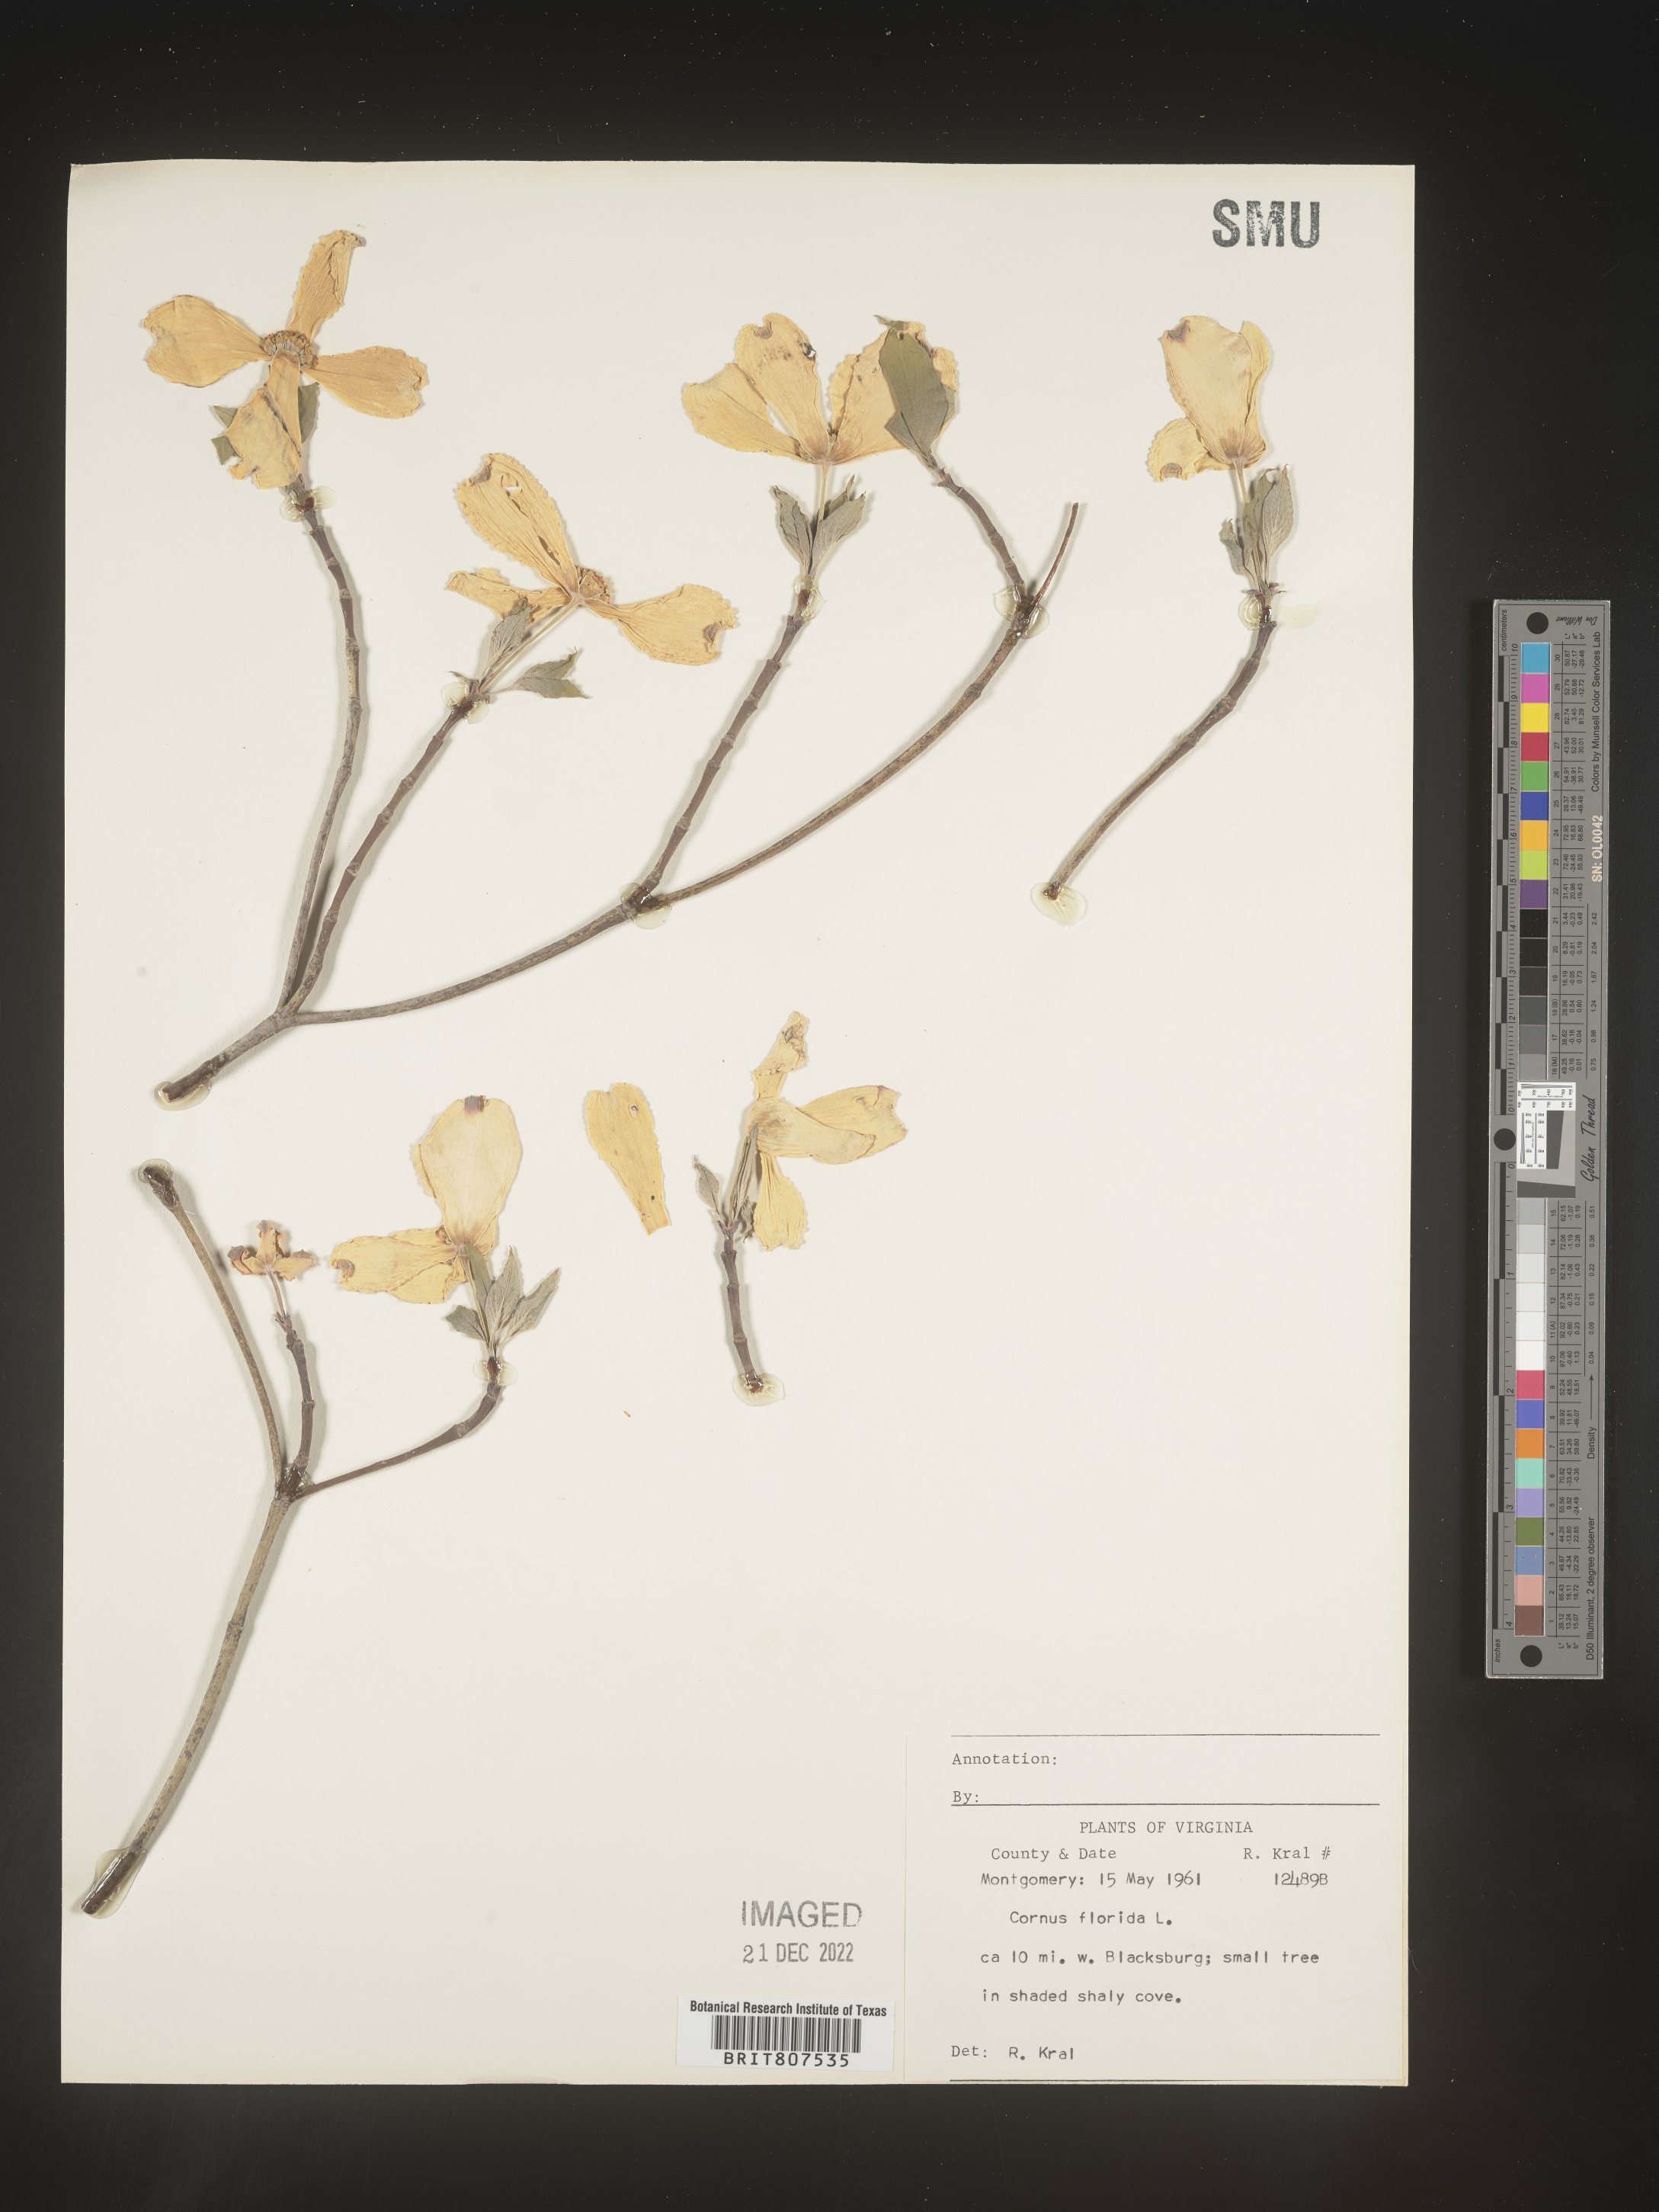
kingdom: Plantae
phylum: Tracheophyta
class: Magnoliopsida
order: Cornales
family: Cornaceae
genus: Cornus
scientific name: Cornus florida
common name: Flowering dogwood
